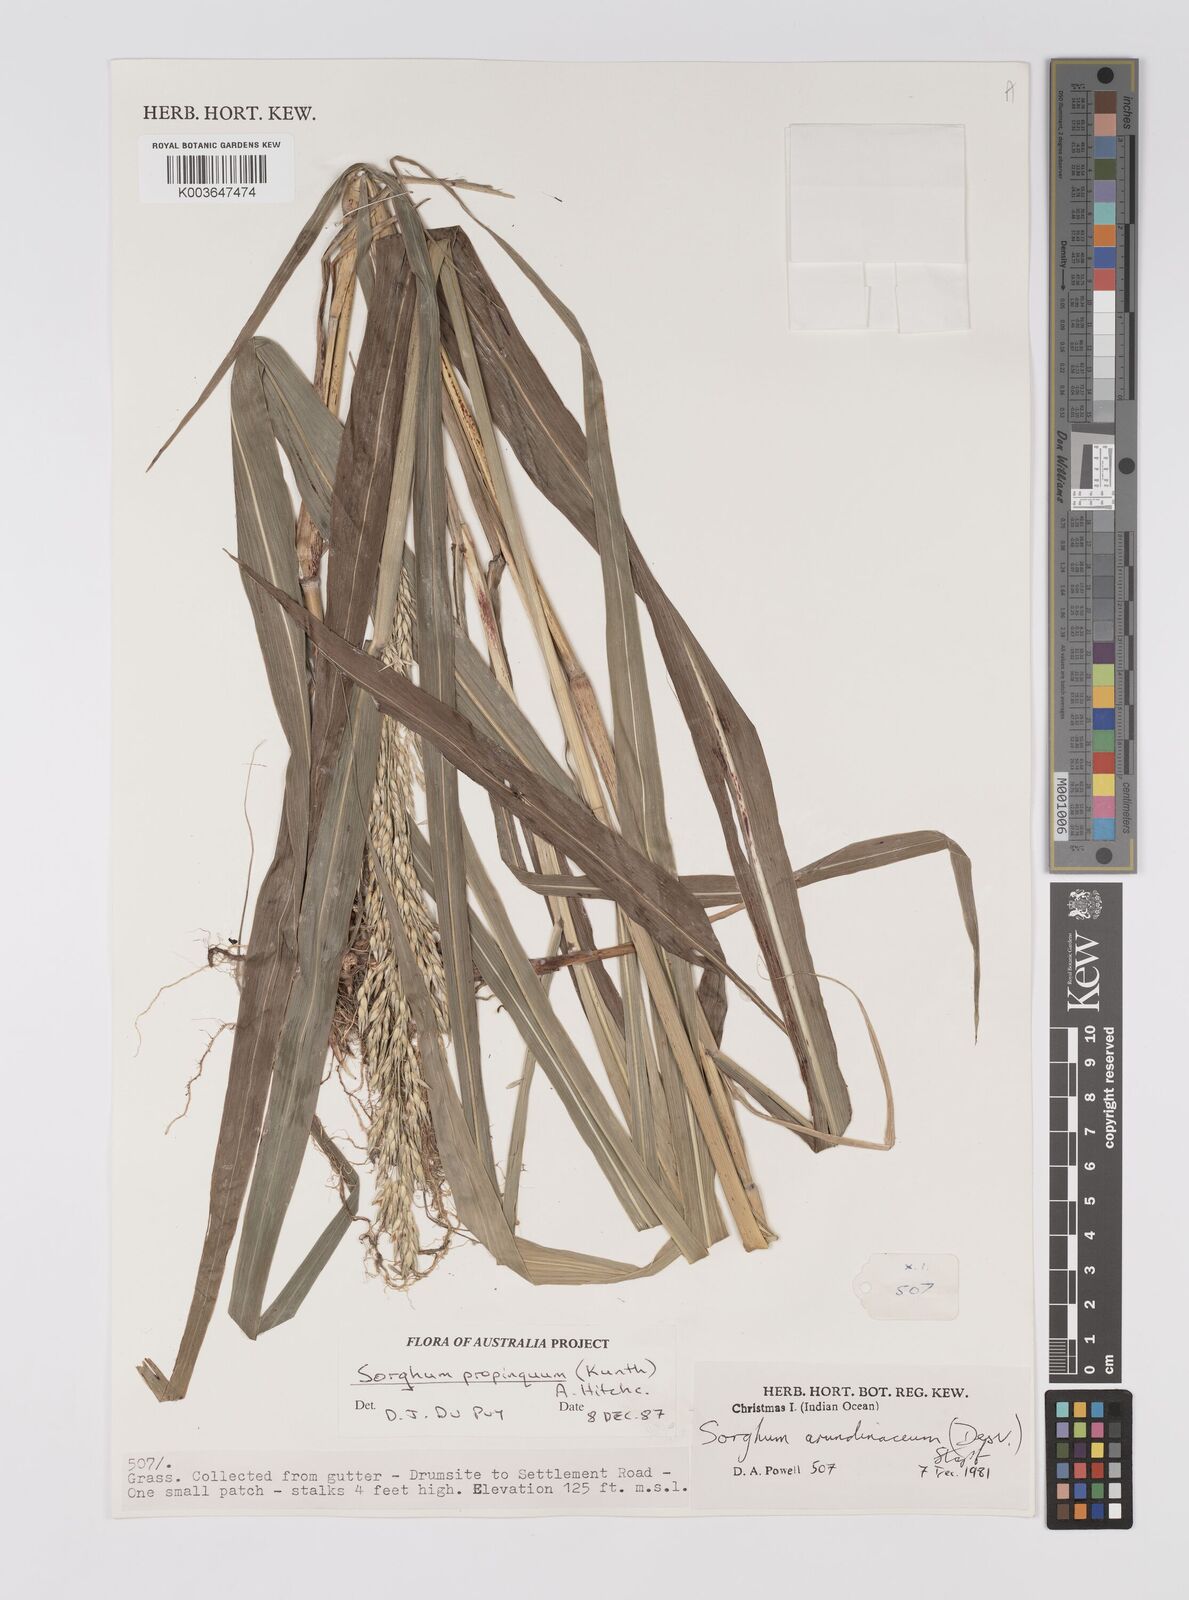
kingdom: Plantae
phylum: Tracheophyta
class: Liliopsida
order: Poales
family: Poaceae
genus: Sorghum
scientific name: Sorghum propinquum
